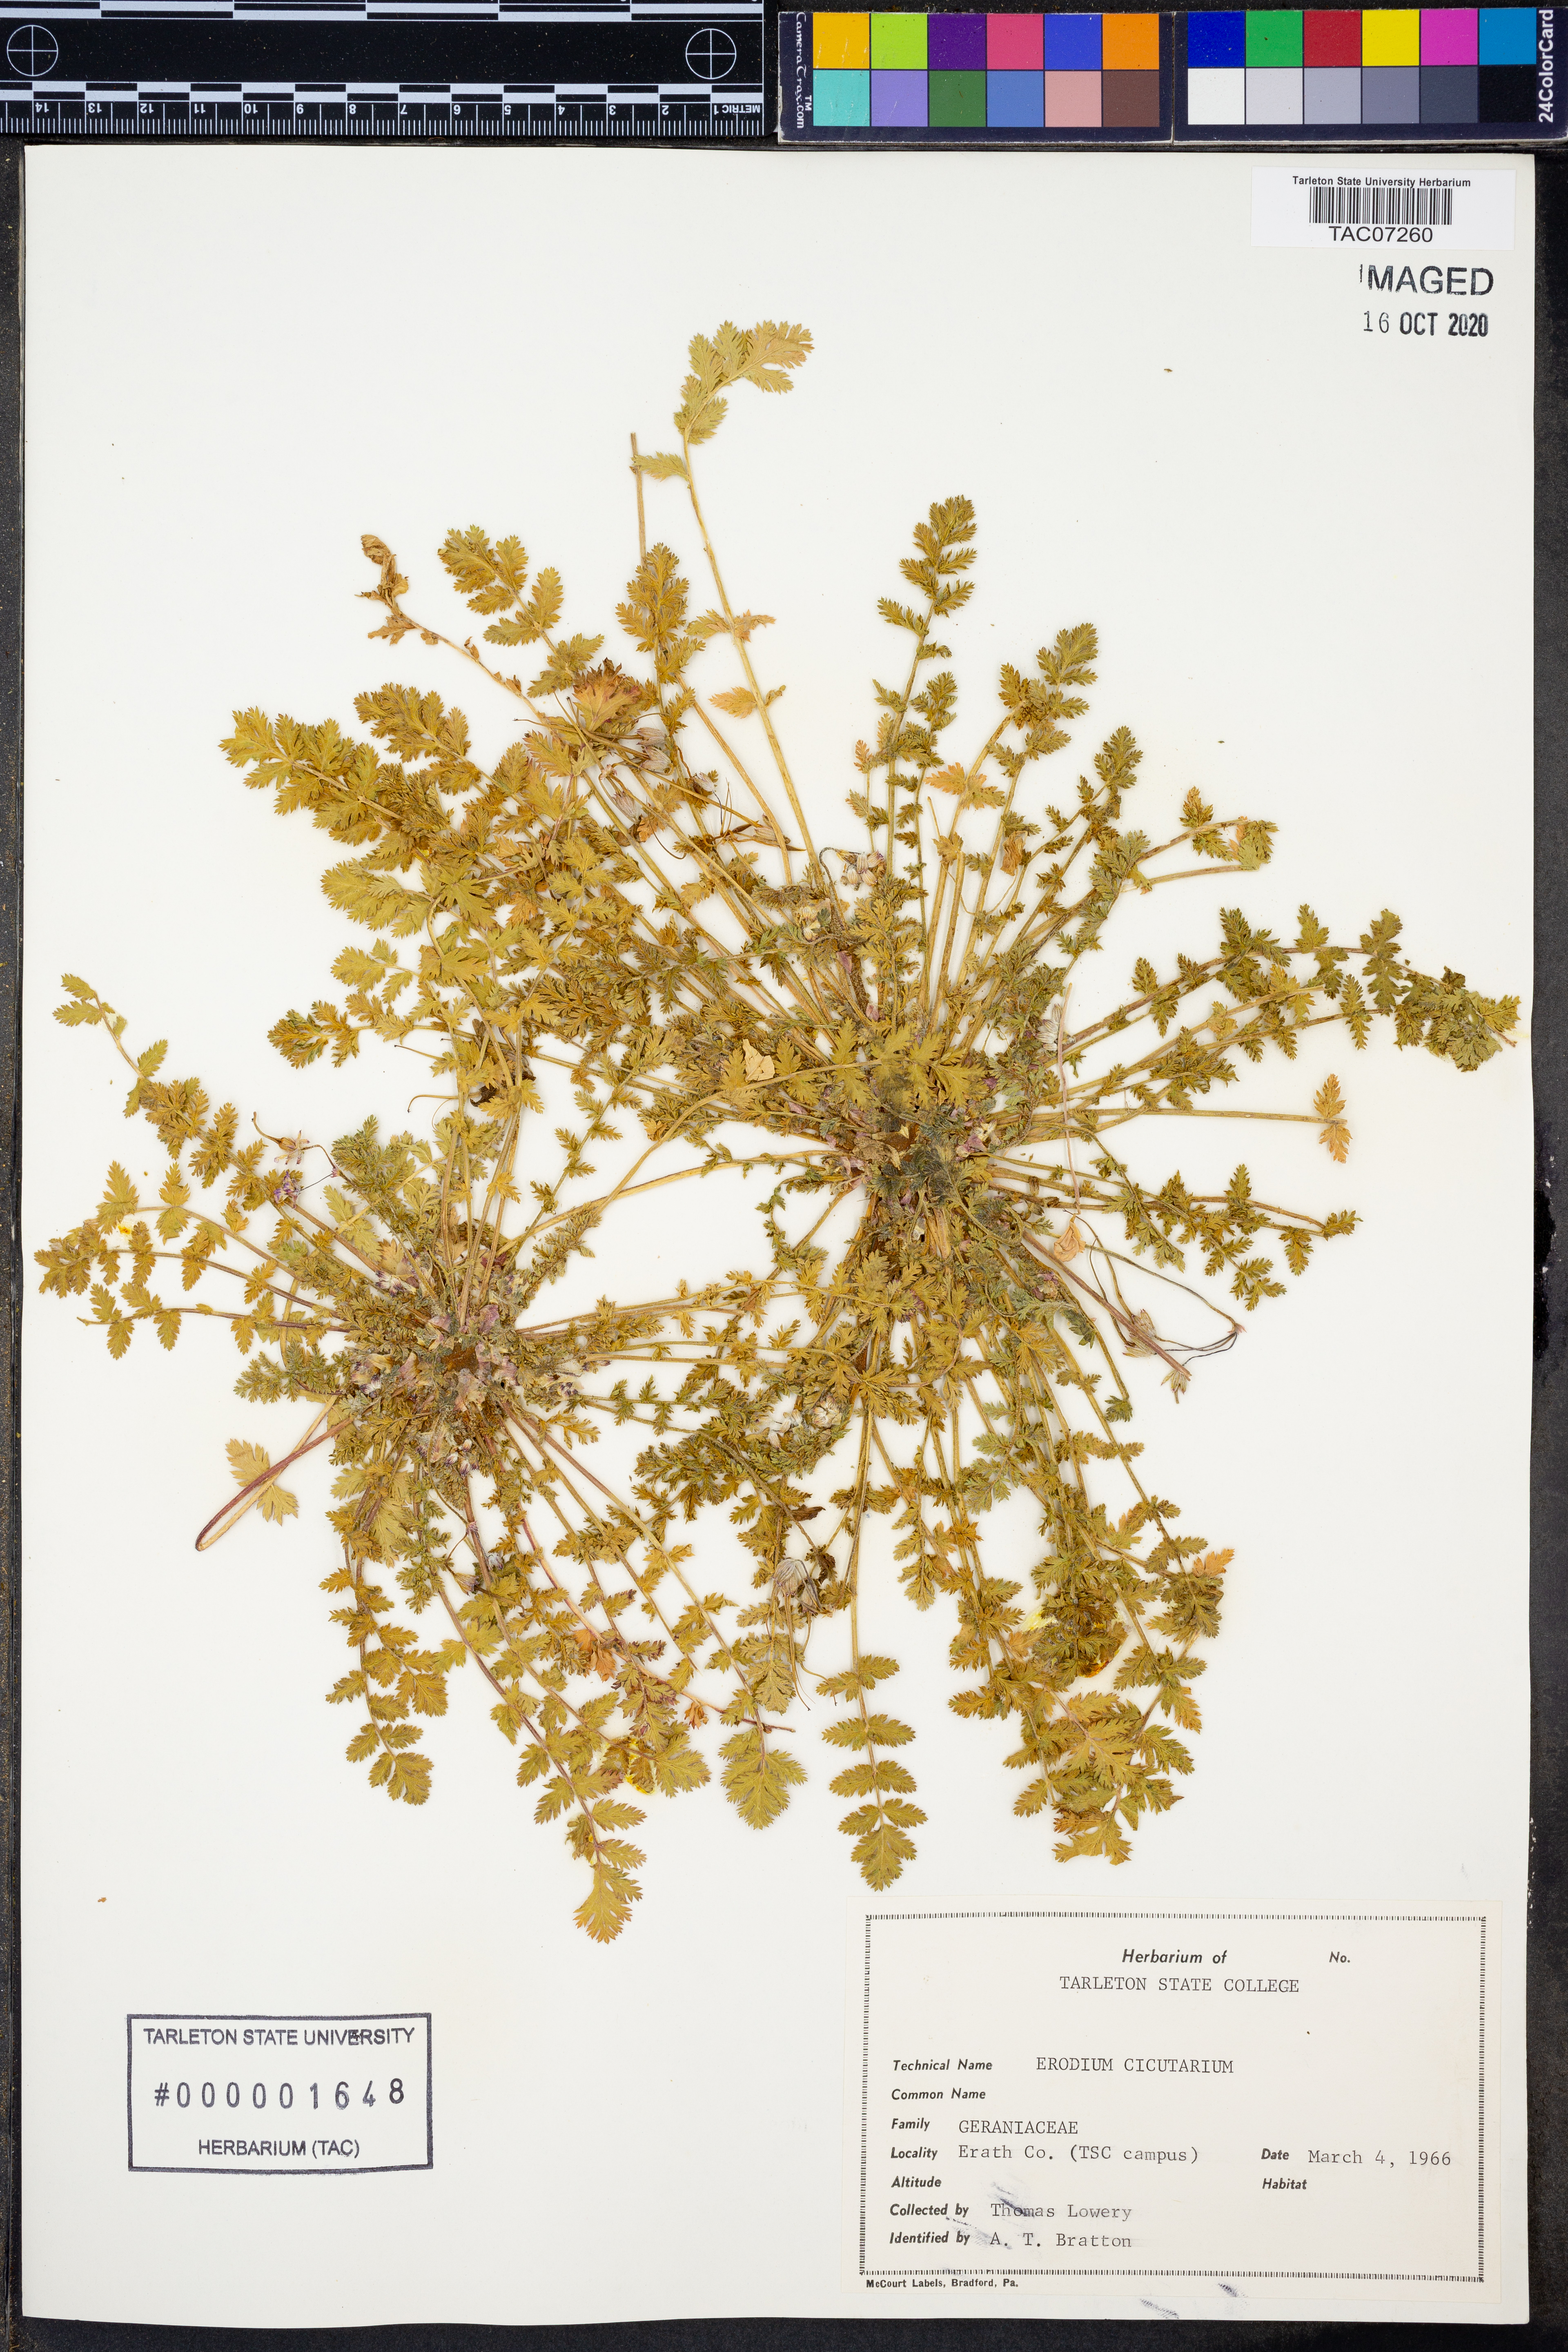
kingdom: Plantae
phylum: Tracheophyta
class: Magnoliopsida
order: Geraniales
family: Geraniaceae
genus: Erodium
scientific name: Erodium cicutarium
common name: Common stork's-bill
